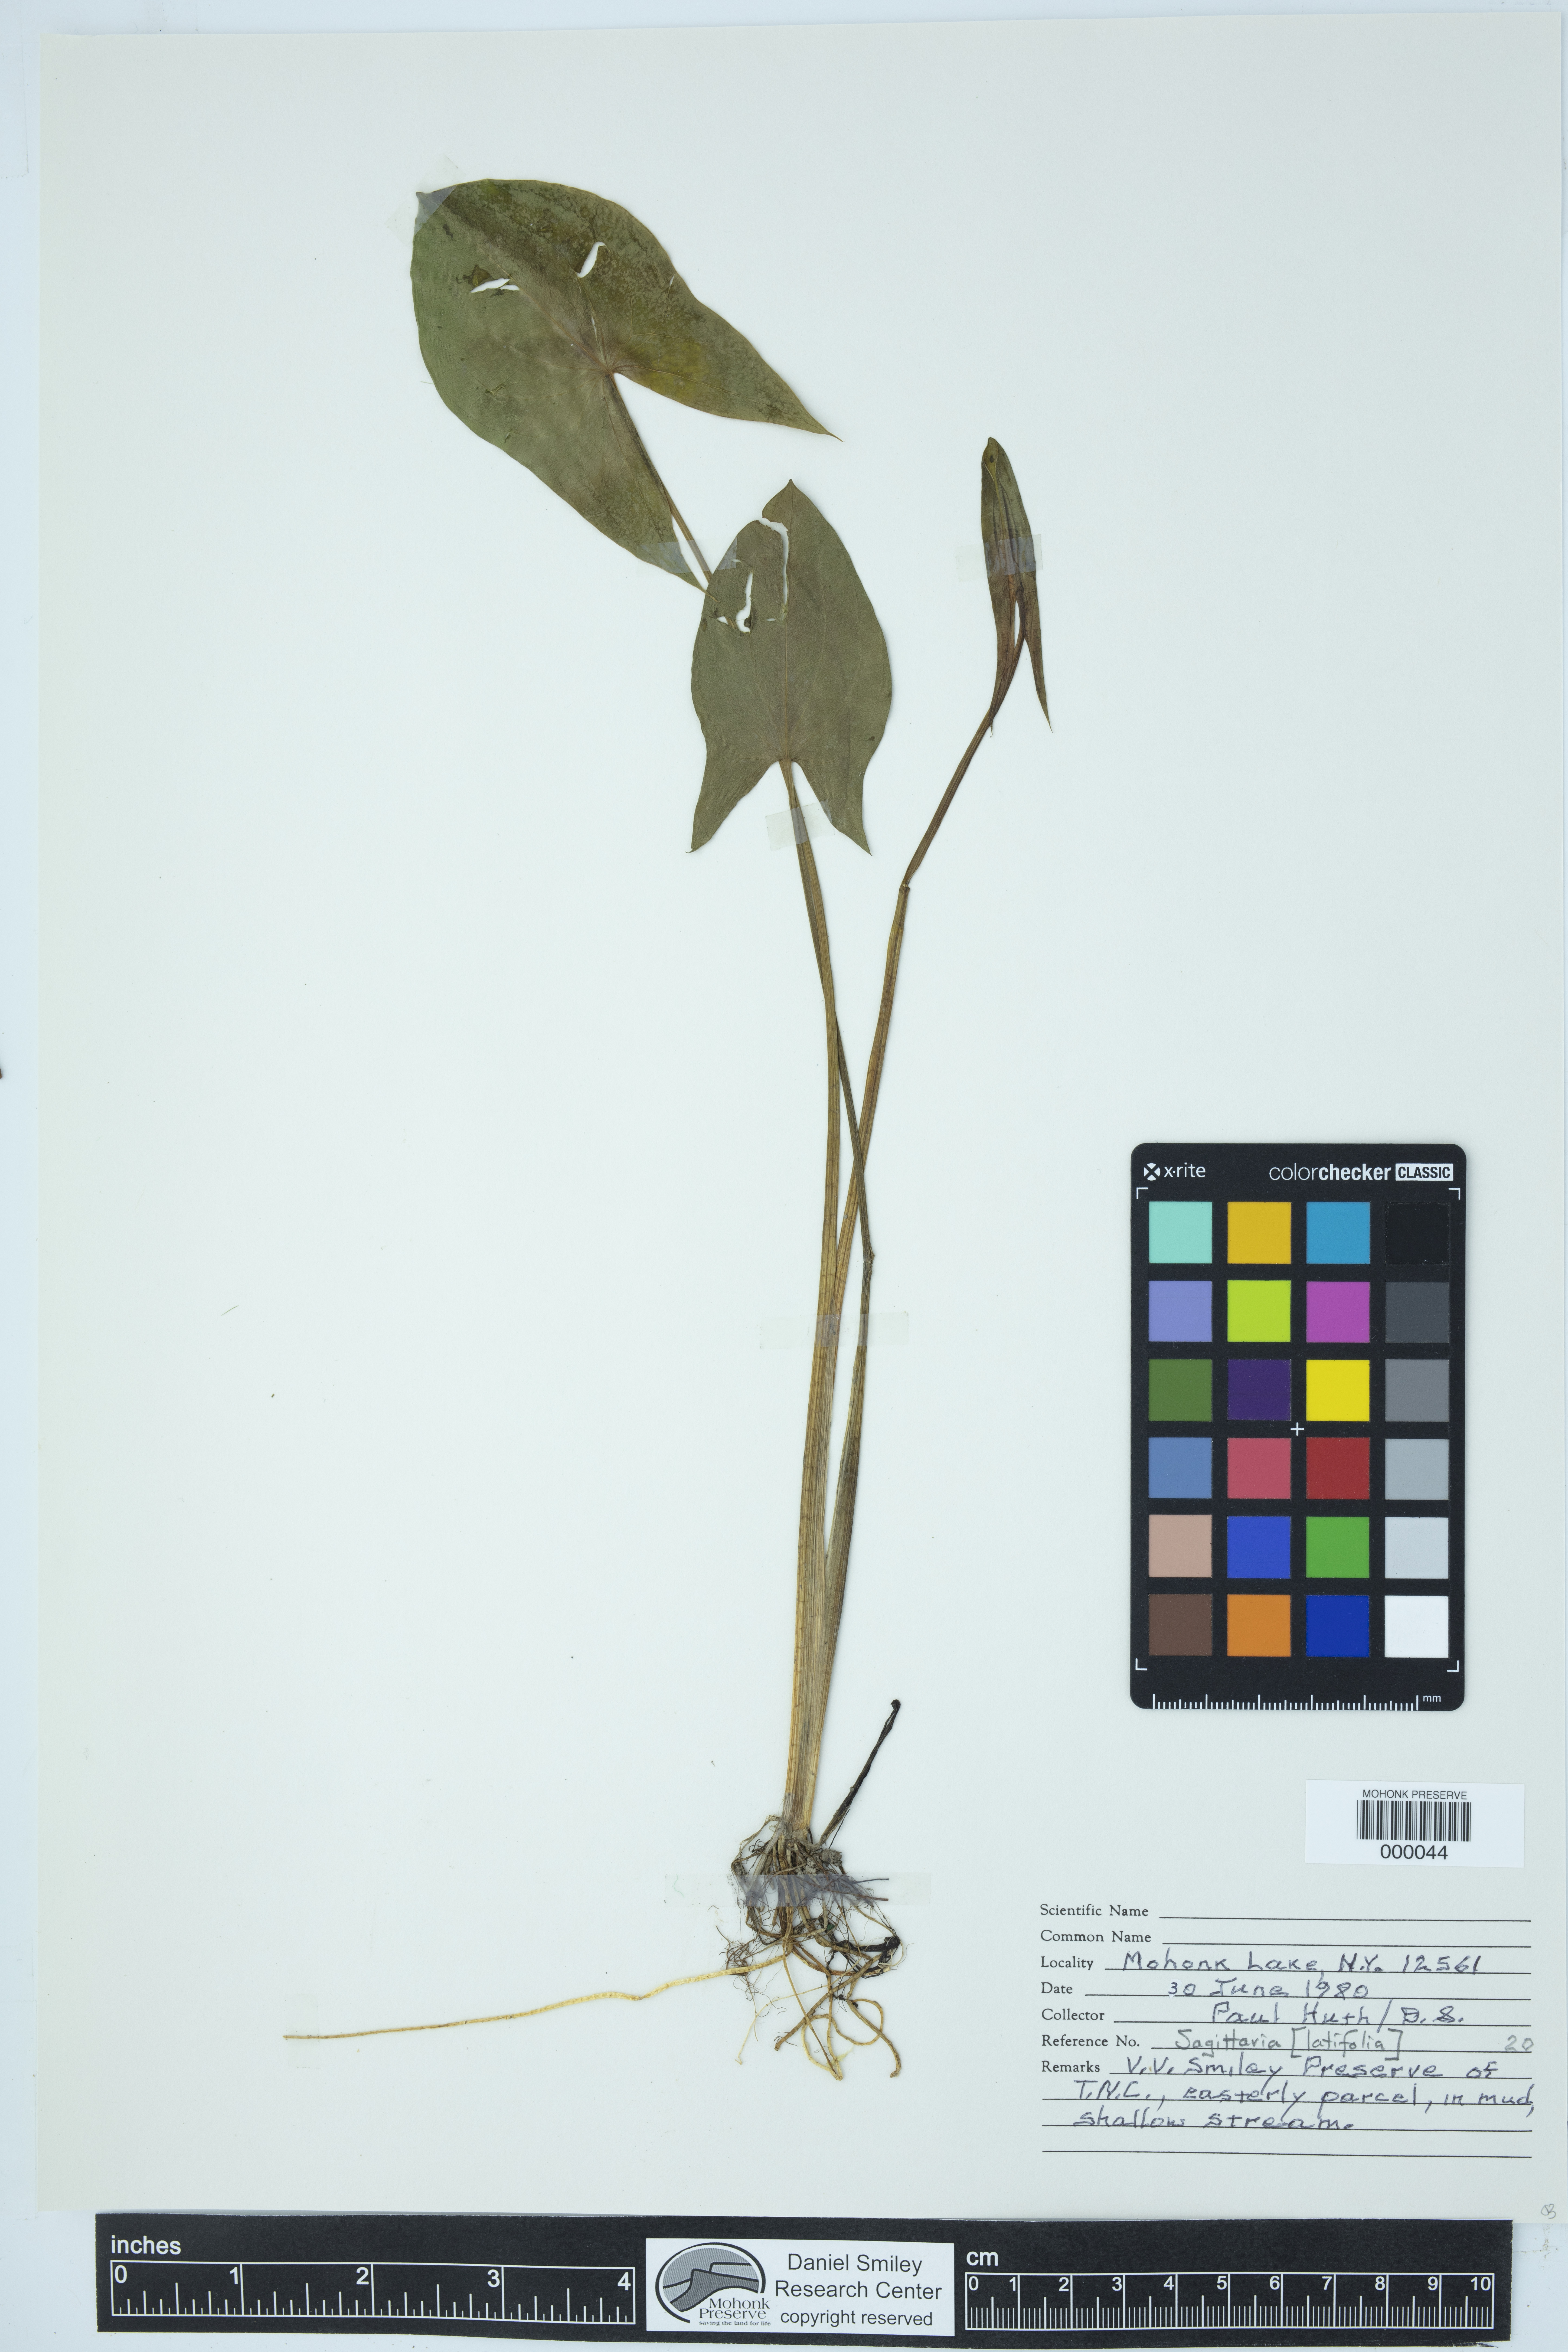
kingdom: Plantae
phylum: Tracheophyta
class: Liliopsida
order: Alismatales
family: Alismataceae
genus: Sagittaria
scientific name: Sagittaria latifolia
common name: Duck-potato
